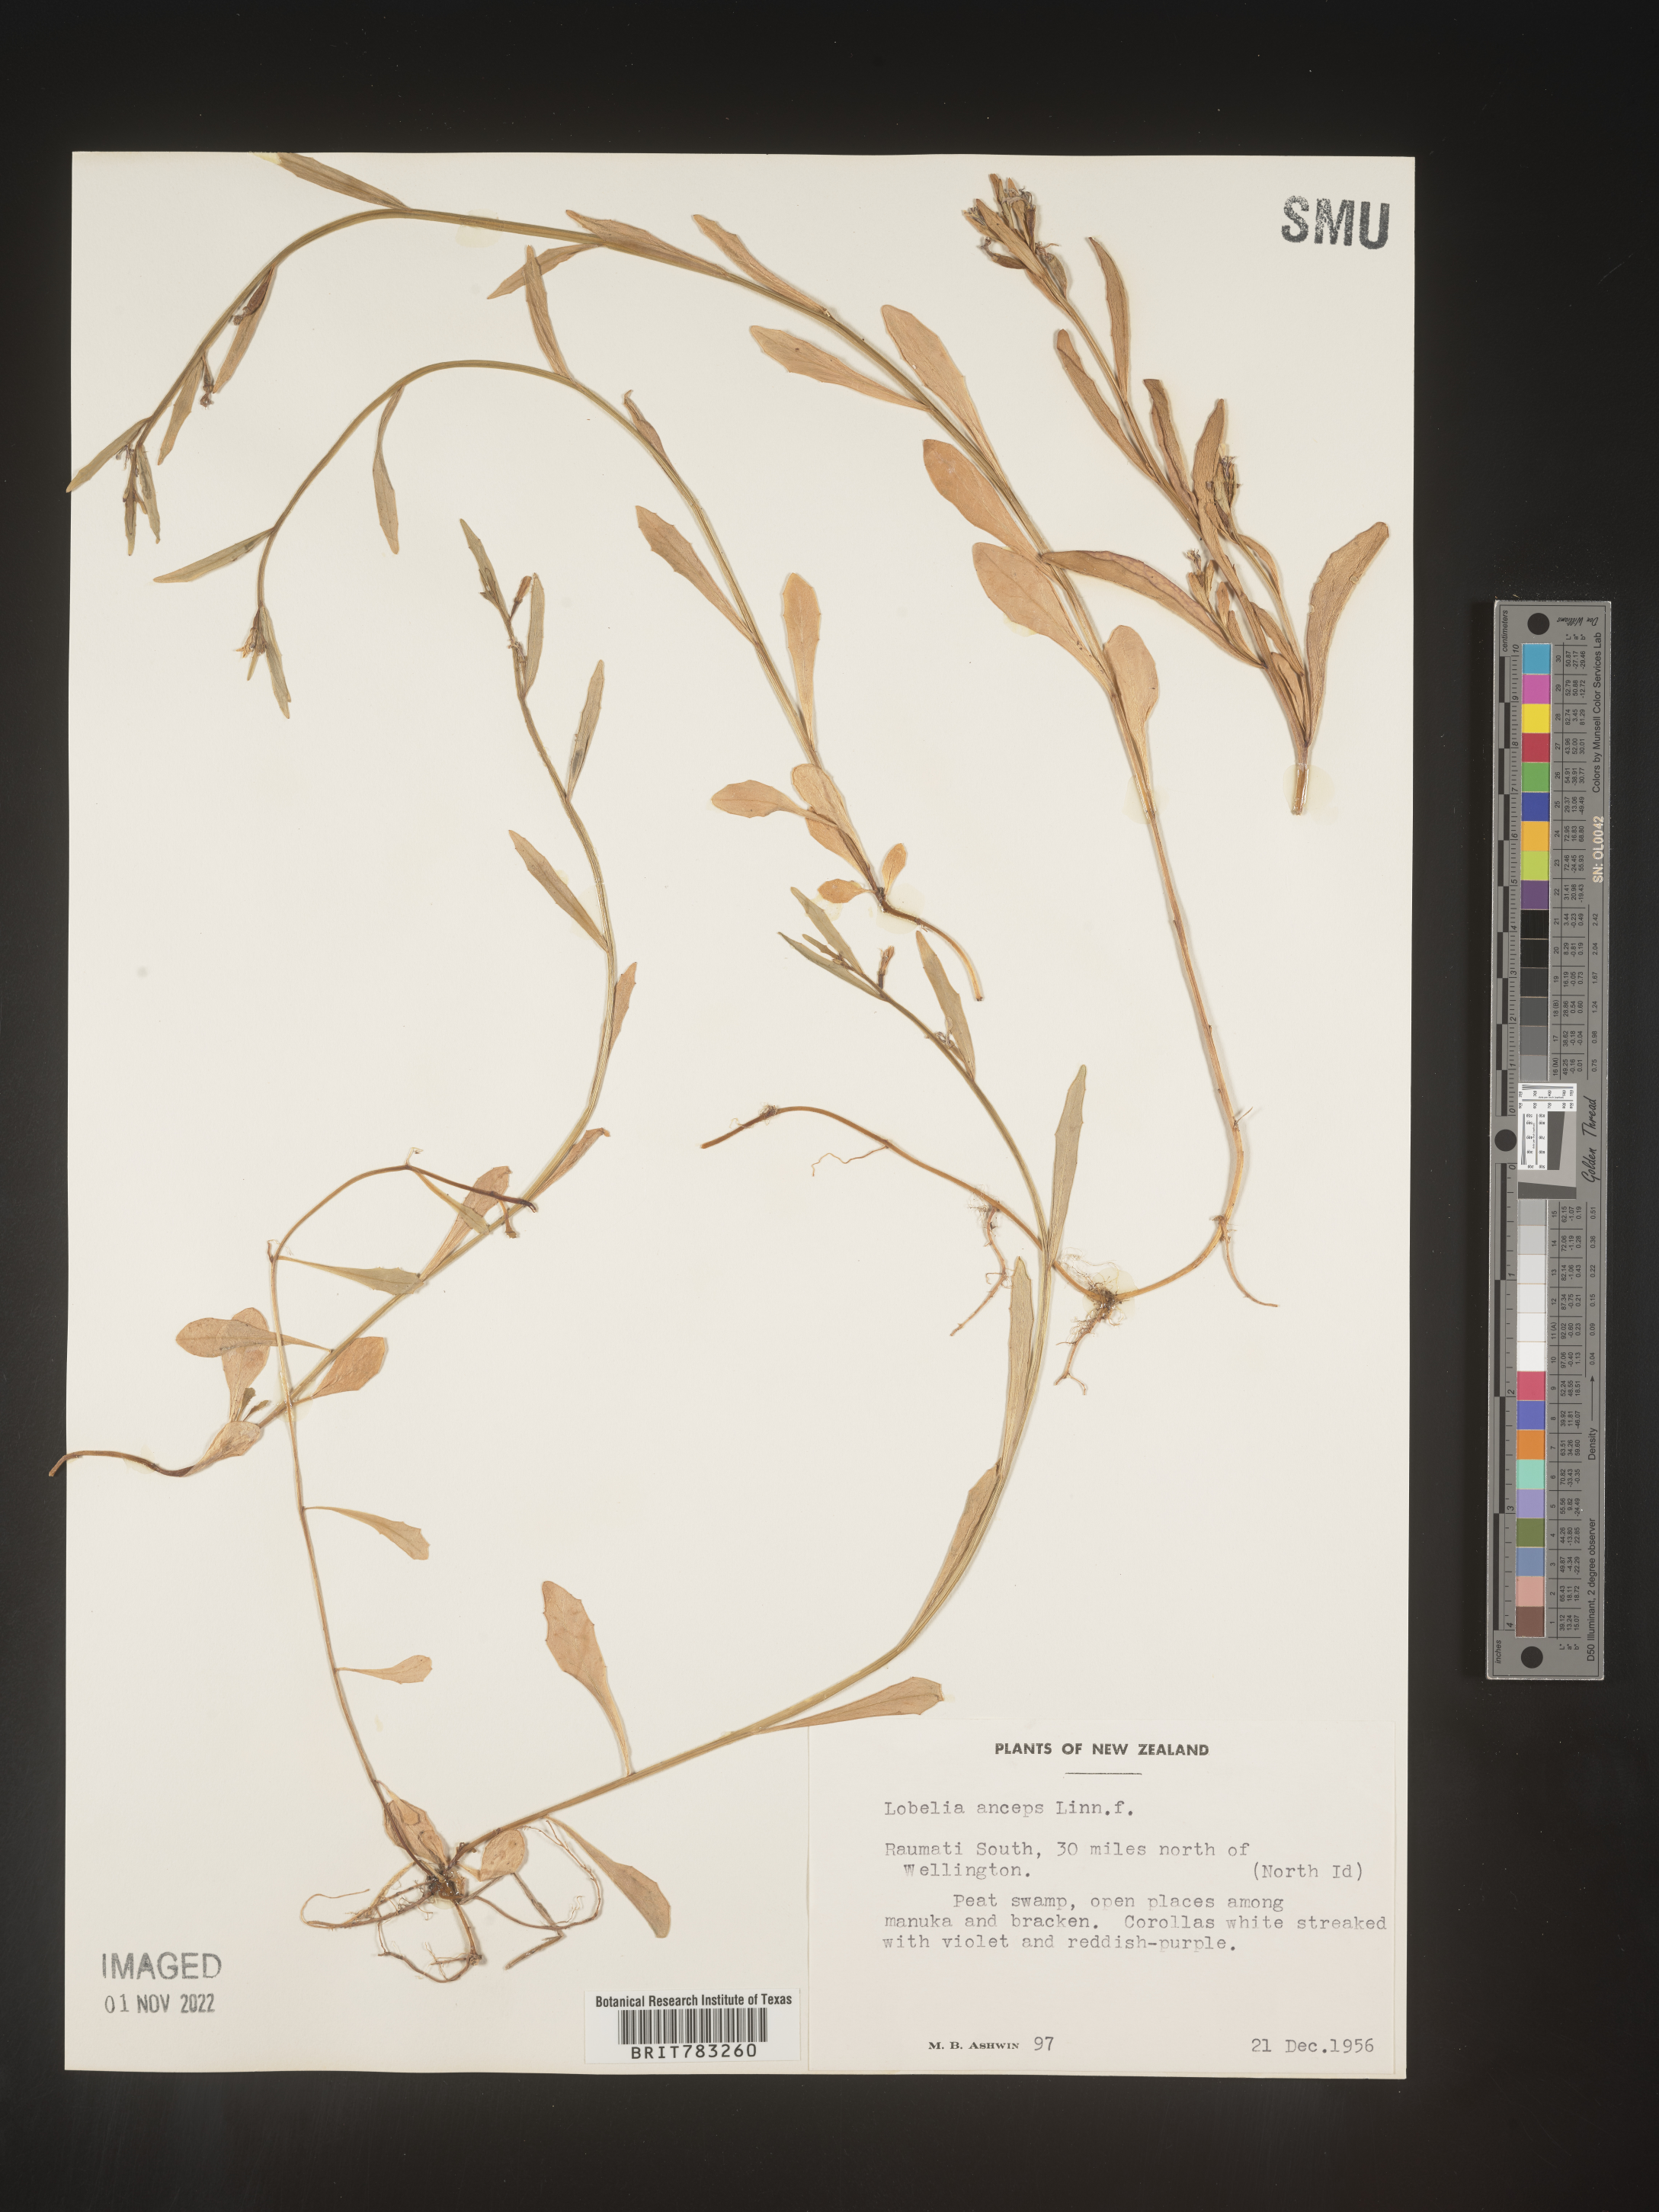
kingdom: Plantae
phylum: Tracheophyta
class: Magnoliopsida
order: Asterales
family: Campanulaceae
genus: Lobelia
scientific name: Lobelia
